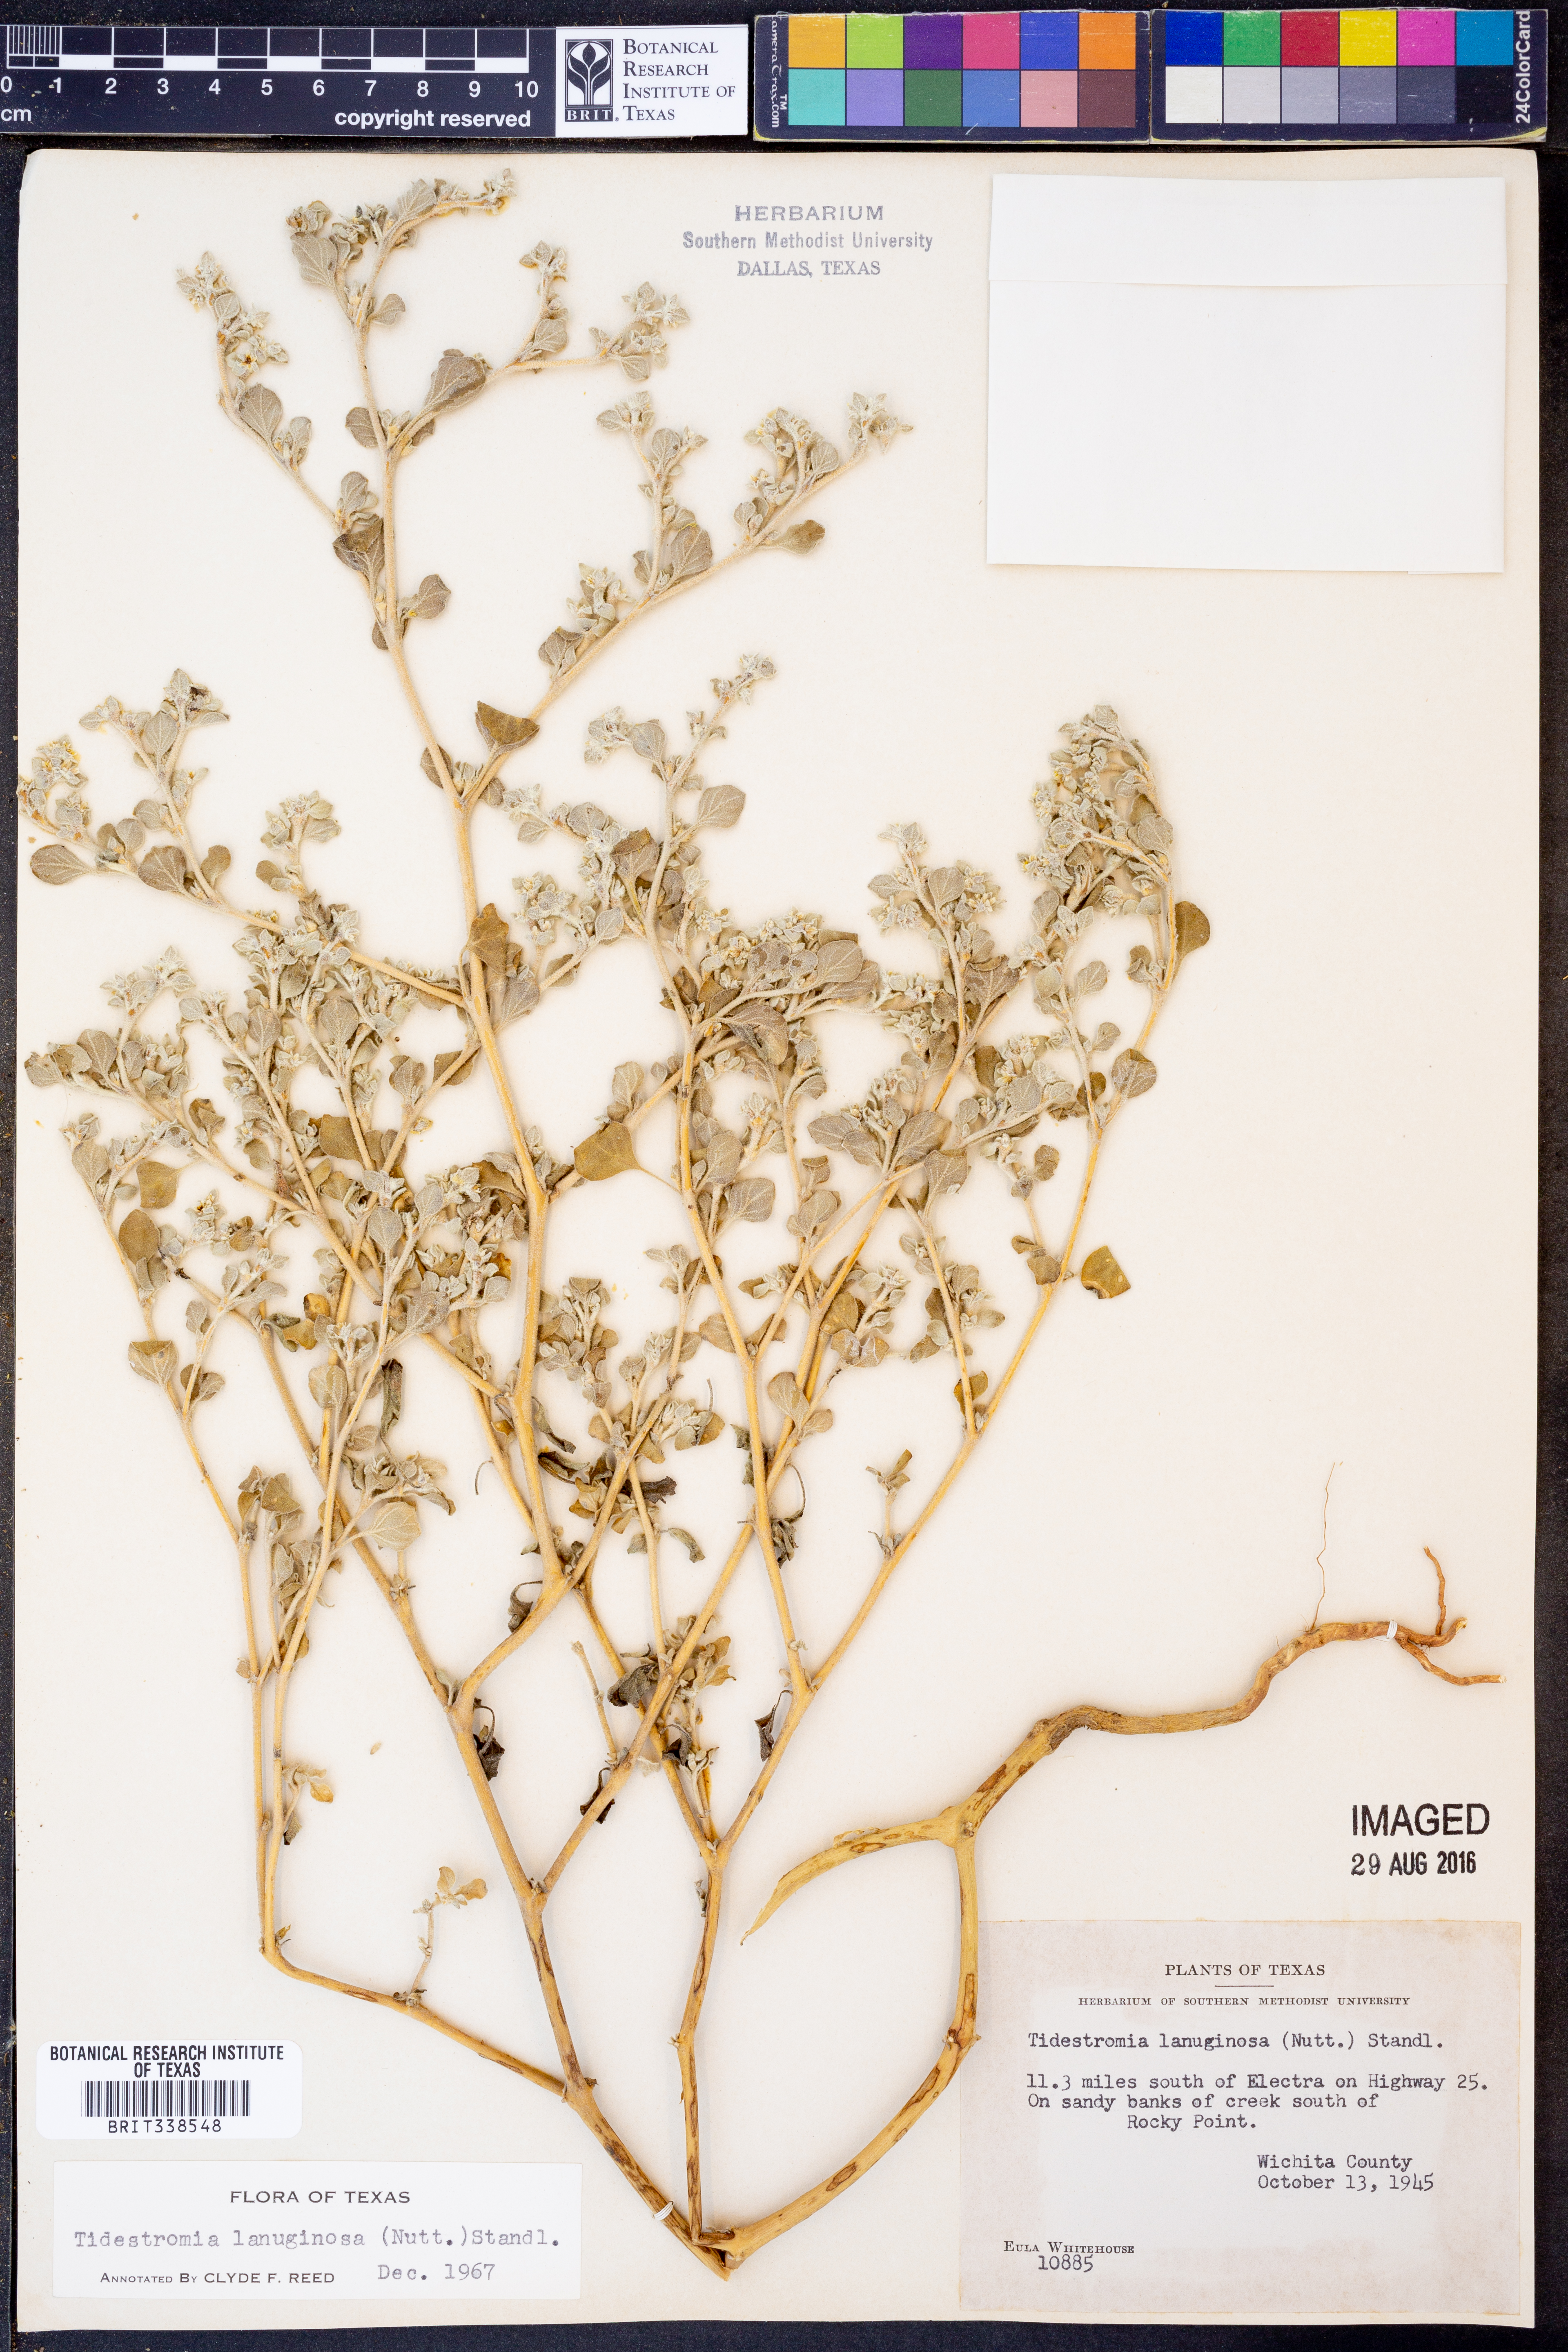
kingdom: Plantae
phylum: Tracheophyta
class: Magnoliopsida
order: Caryophyllales
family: Amaranthaceae
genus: Tidestromia
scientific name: Tidestromia lanuginosa
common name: Woolly tidestromia
